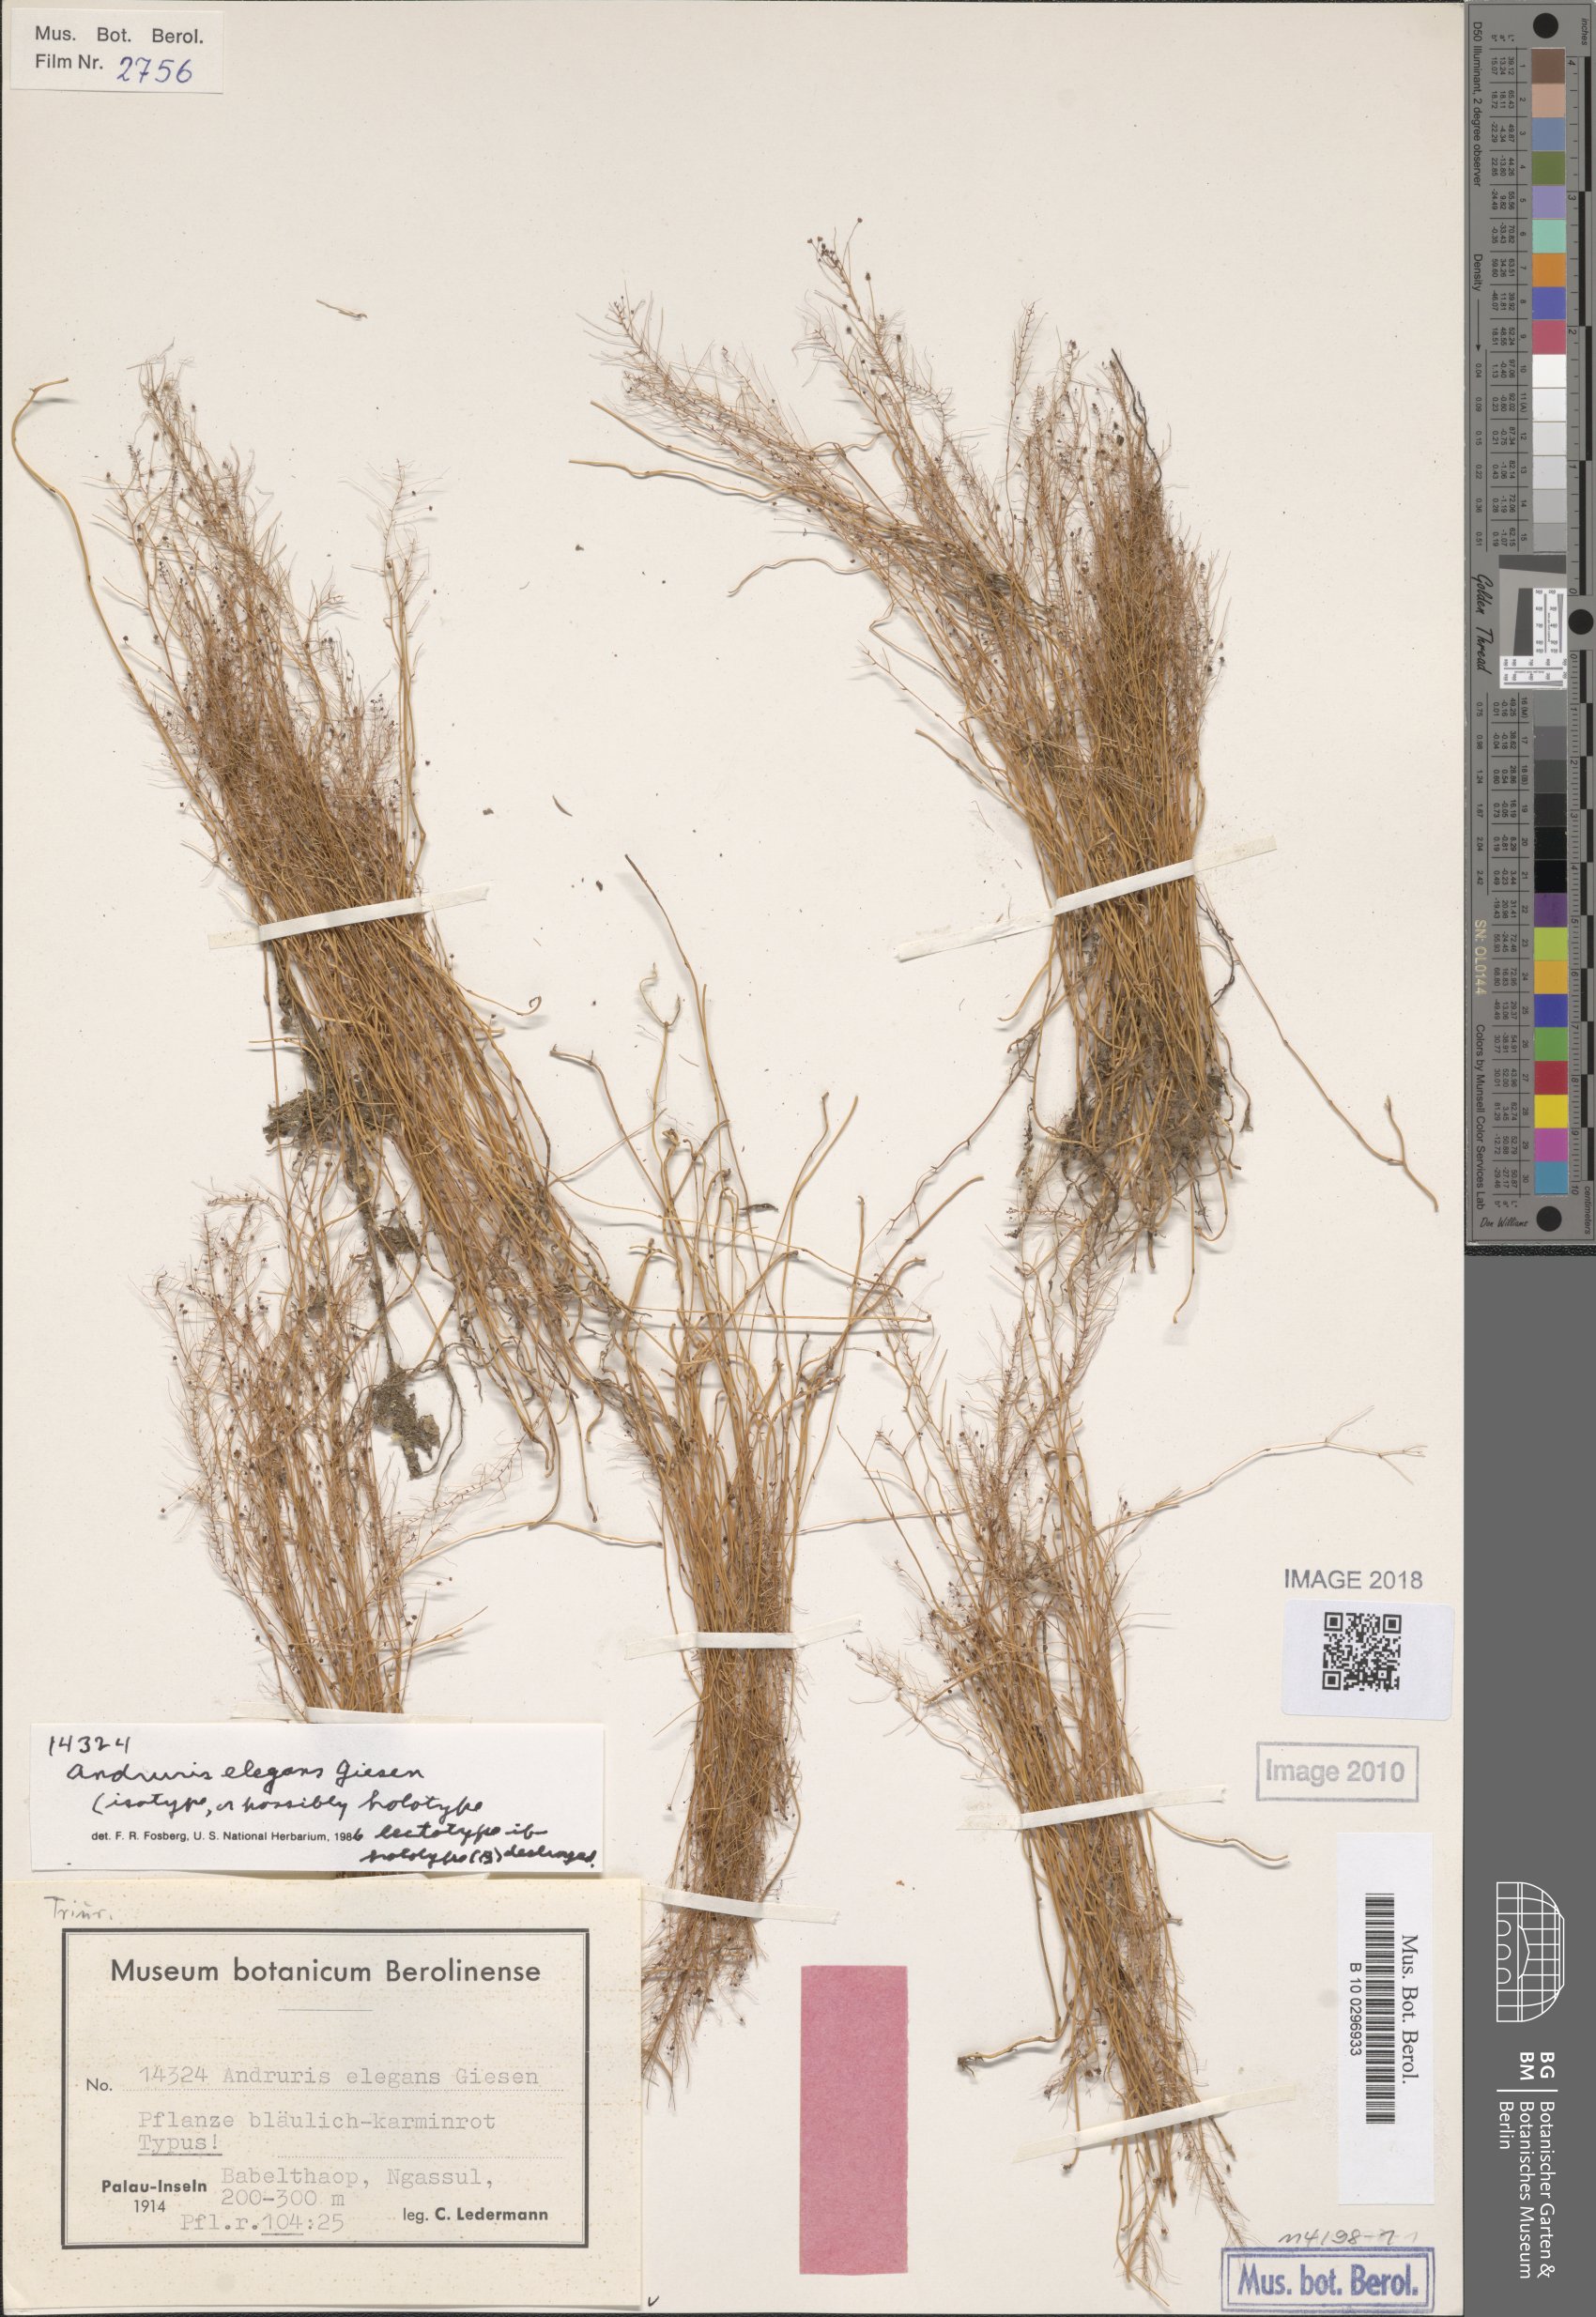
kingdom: Plantae
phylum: Tracheophyta
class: Liliopsida
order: Pandanales
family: Triuridaceae
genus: Sciaphila
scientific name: Sciaphila arfakiana
